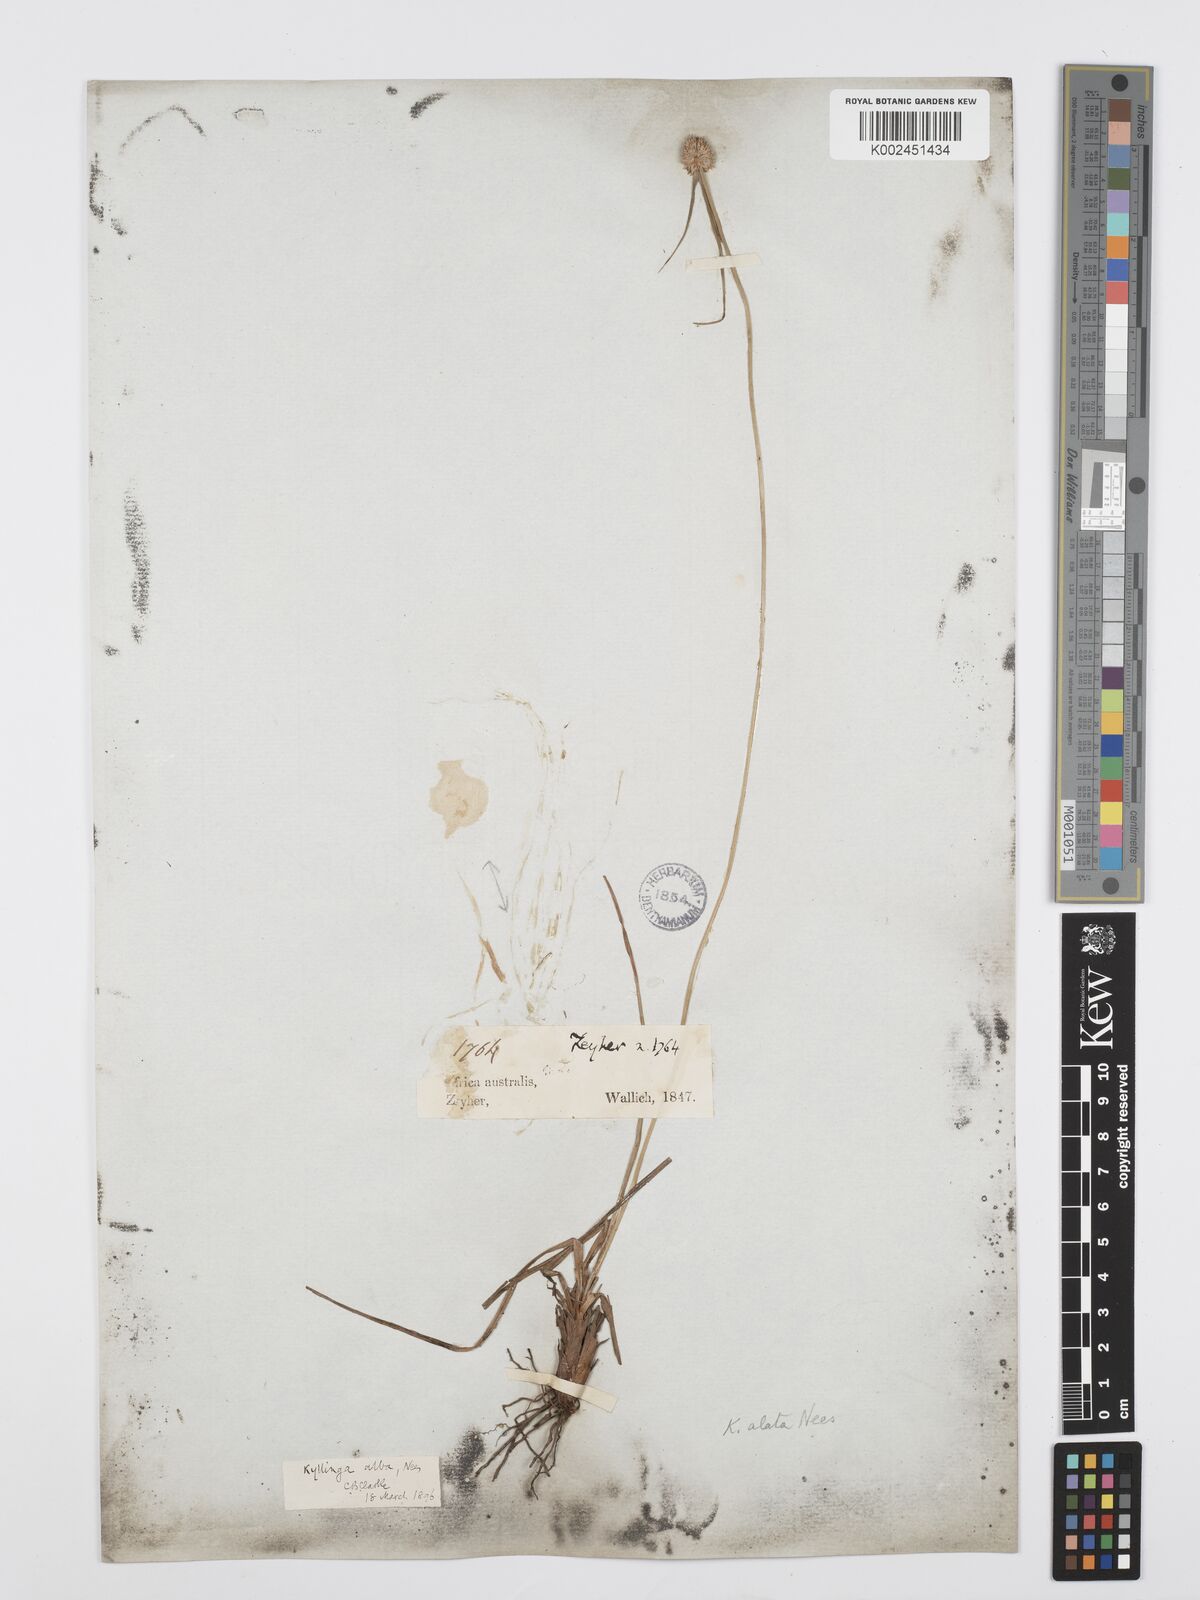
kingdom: Plantae
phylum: Tracheophyta
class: Liliopsida
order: Poales
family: Cyperaceae
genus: Cyperus
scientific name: Cyperus alatus
